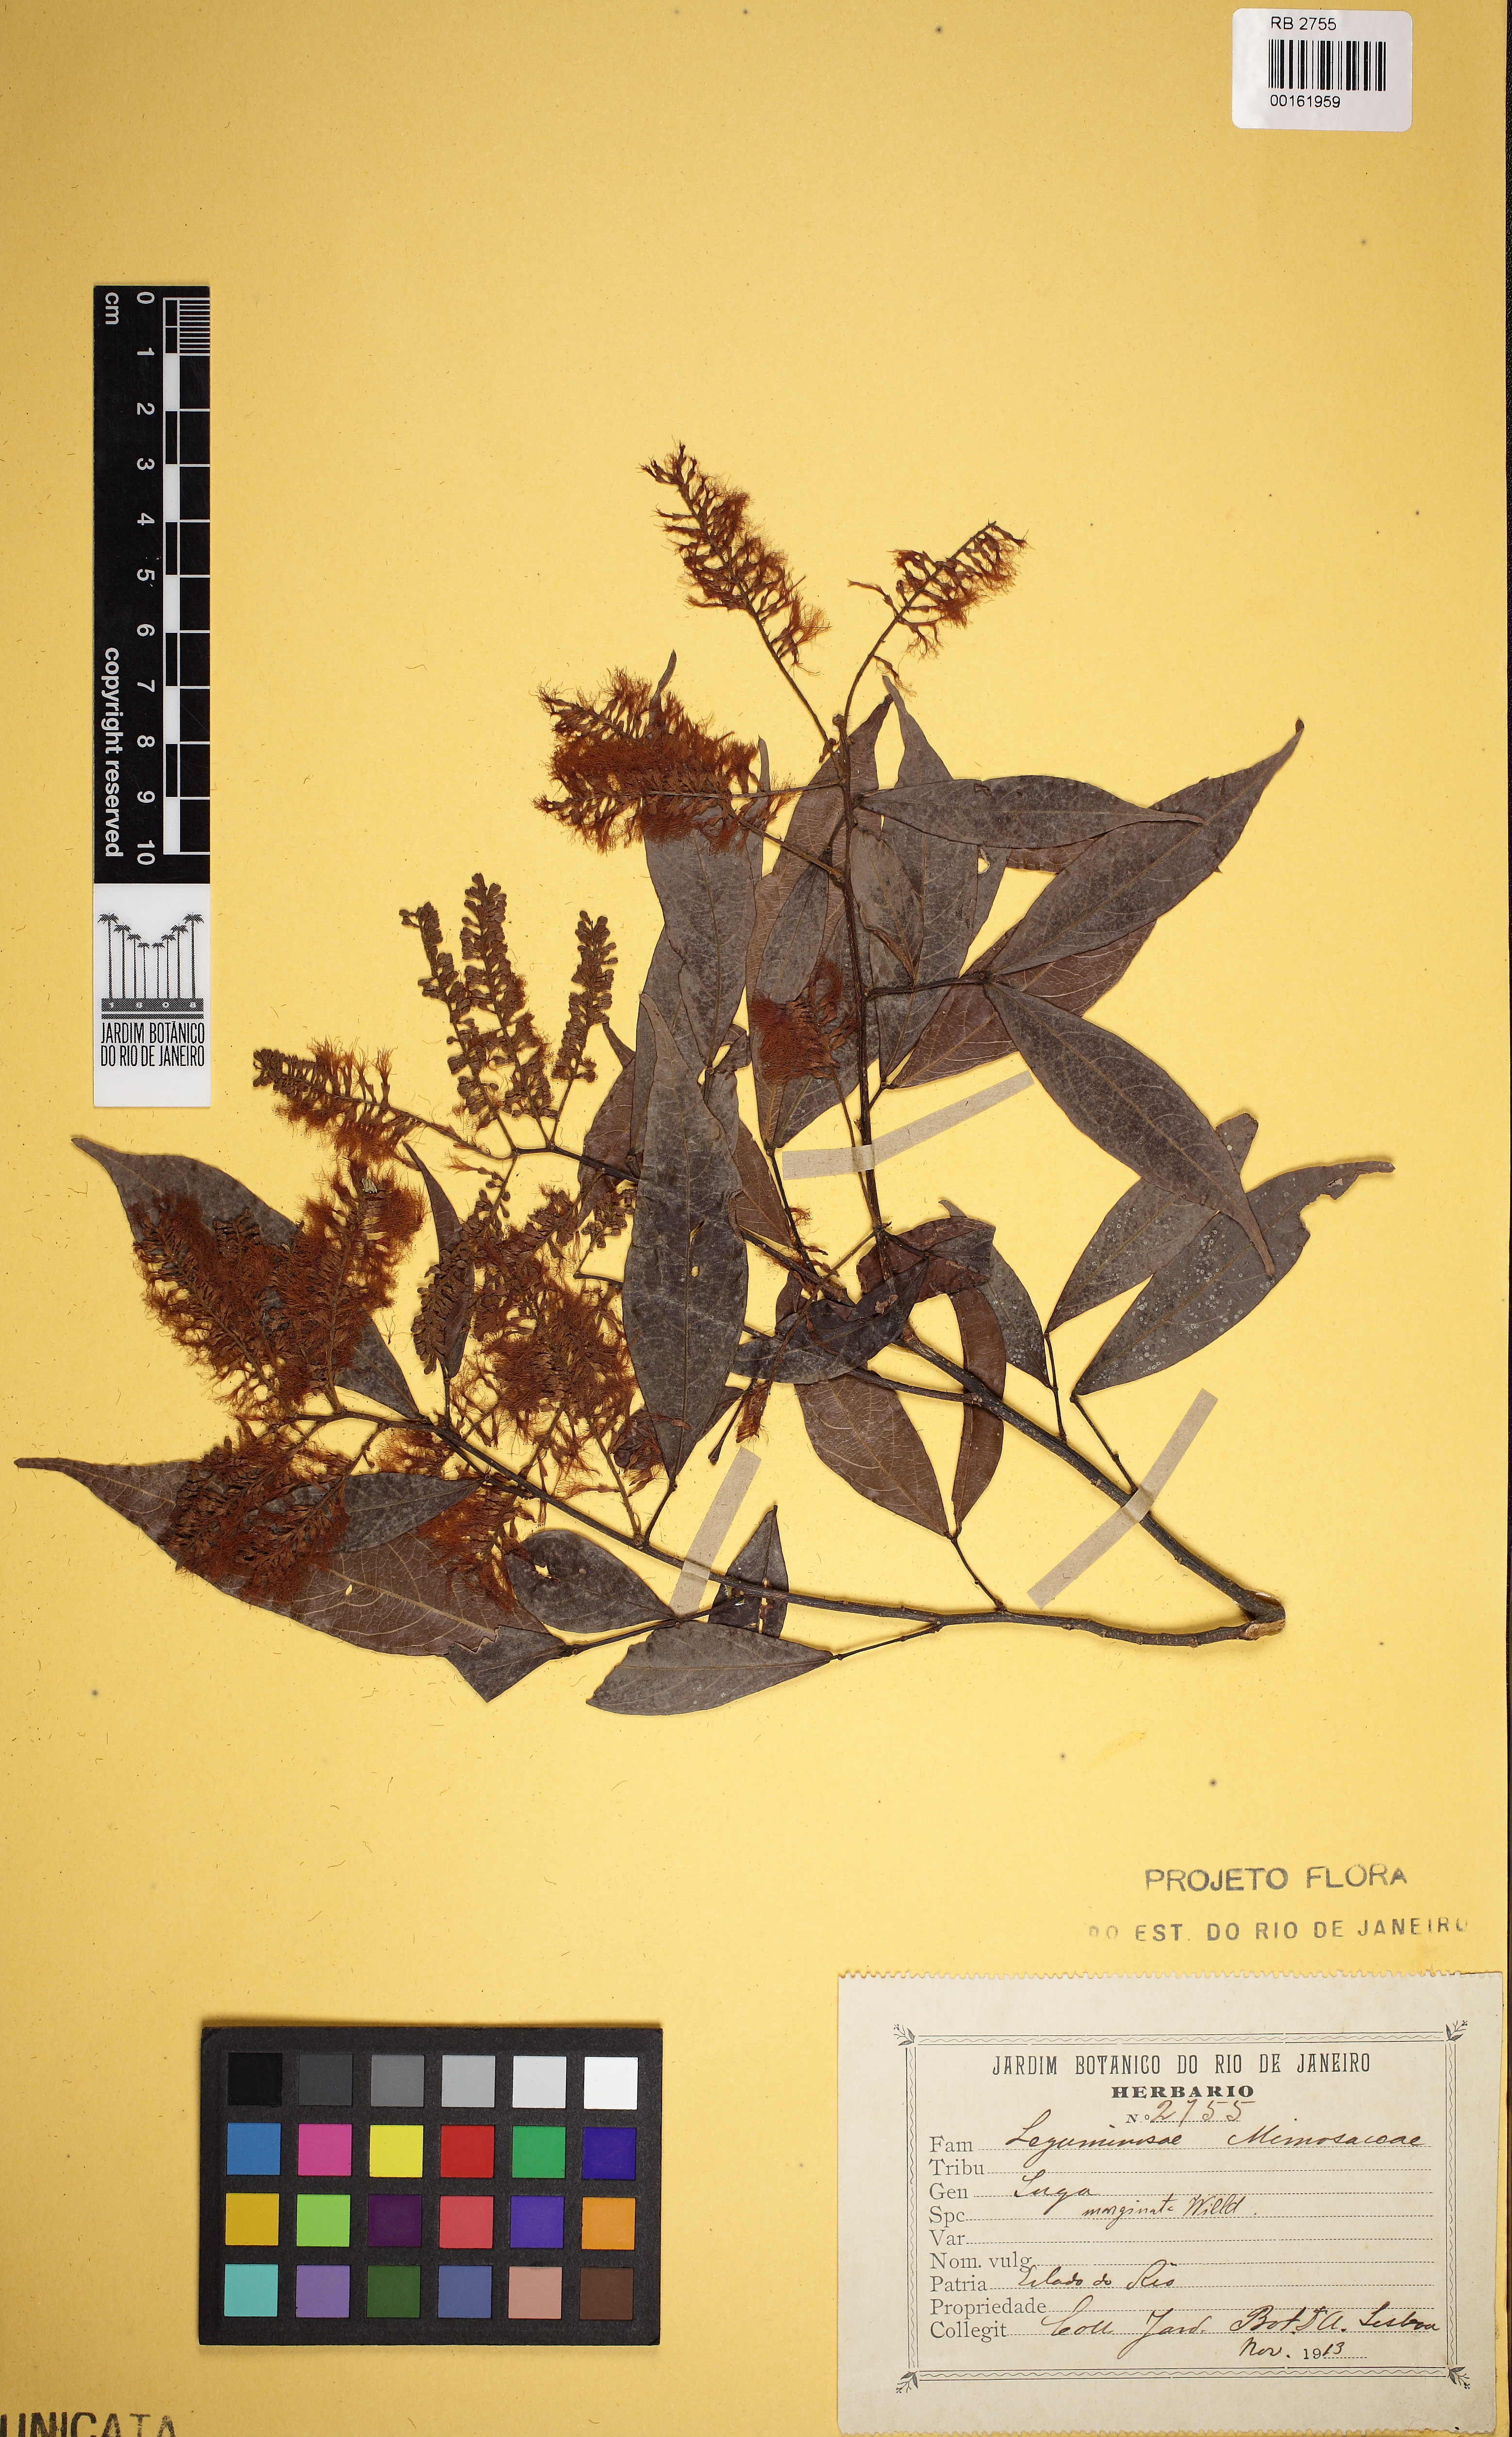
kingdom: Plantae
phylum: Tracheophyta
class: Magnoliopsida
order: Fabales
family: Fabaceae
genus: Inga
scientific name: Inga marginata
